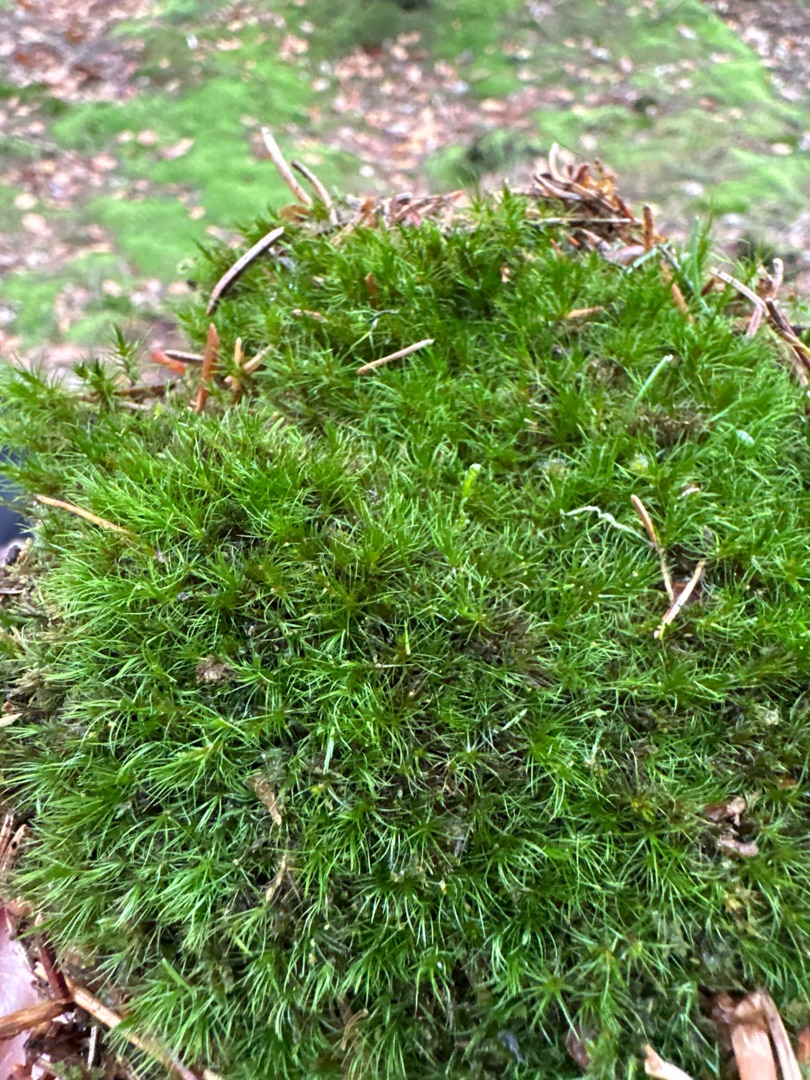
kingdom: Plantae
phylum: Bryophyta
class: Bryopsida
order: Dicranales
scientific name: Dicranales
